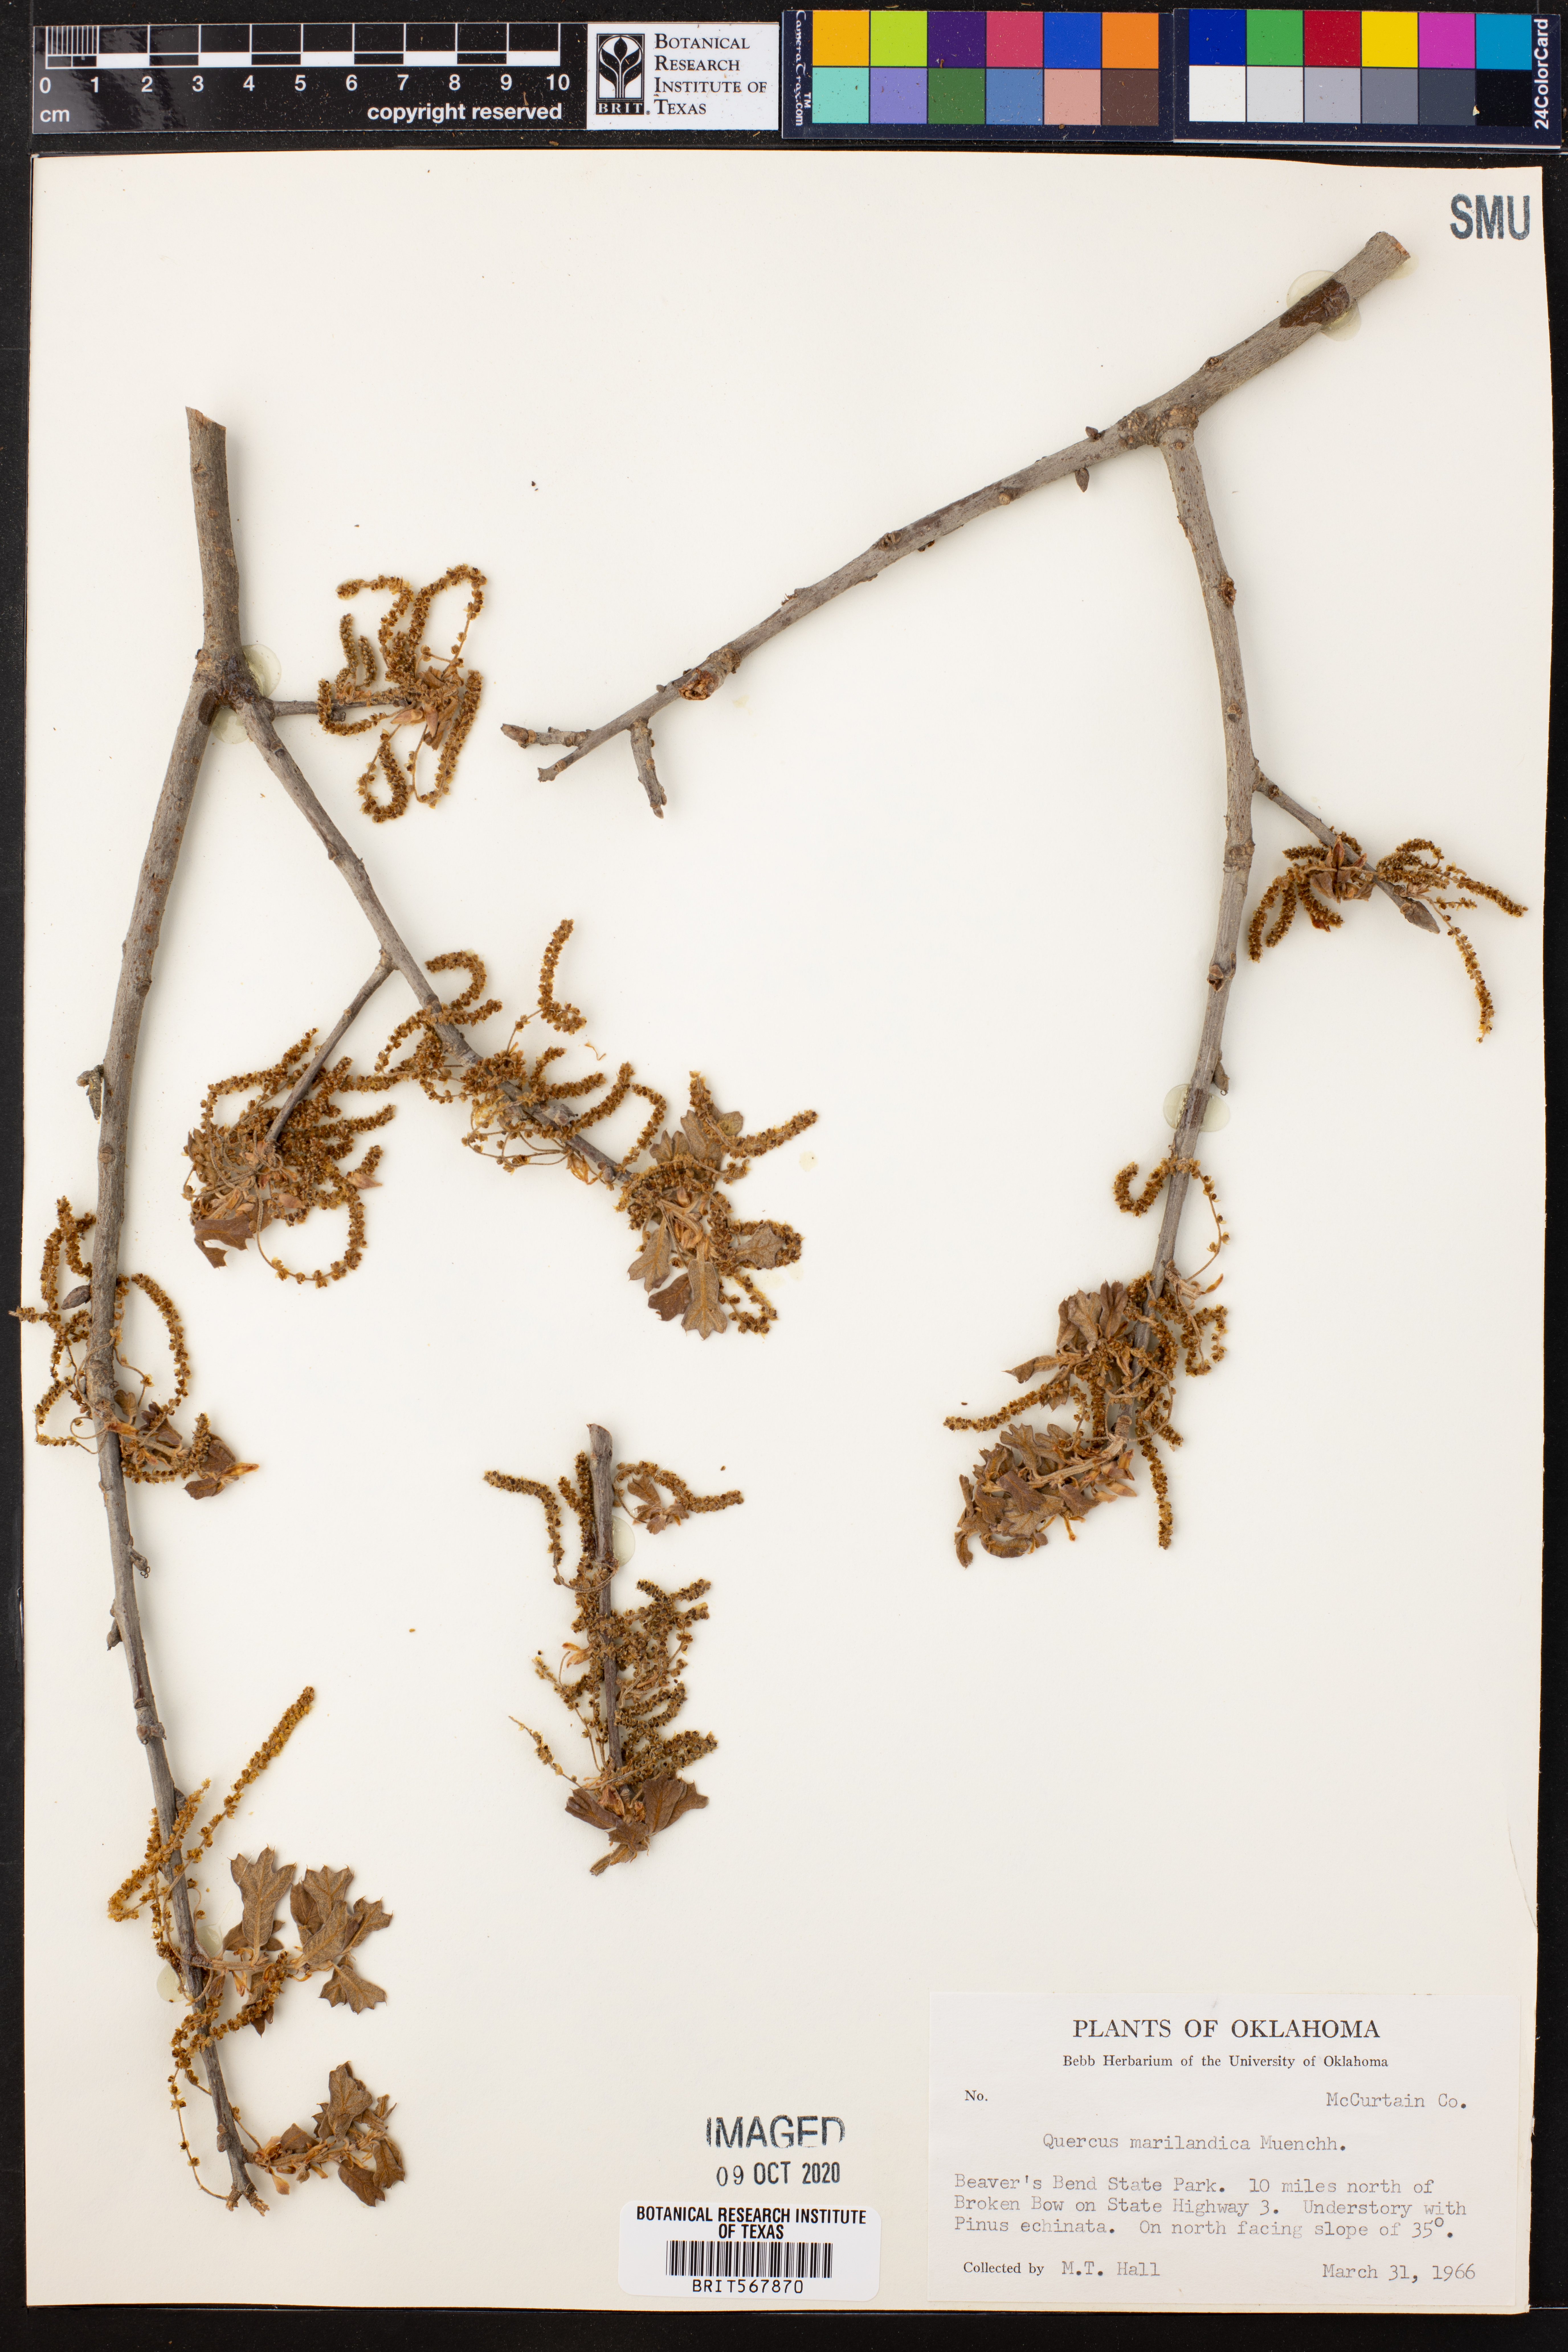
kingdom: Plantae
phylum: Tracheophyta
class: Magnoliopsida
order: Fagales
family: Fagaceae
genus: Quercus
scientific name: Quercus marilandica
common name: Blackjack oak
